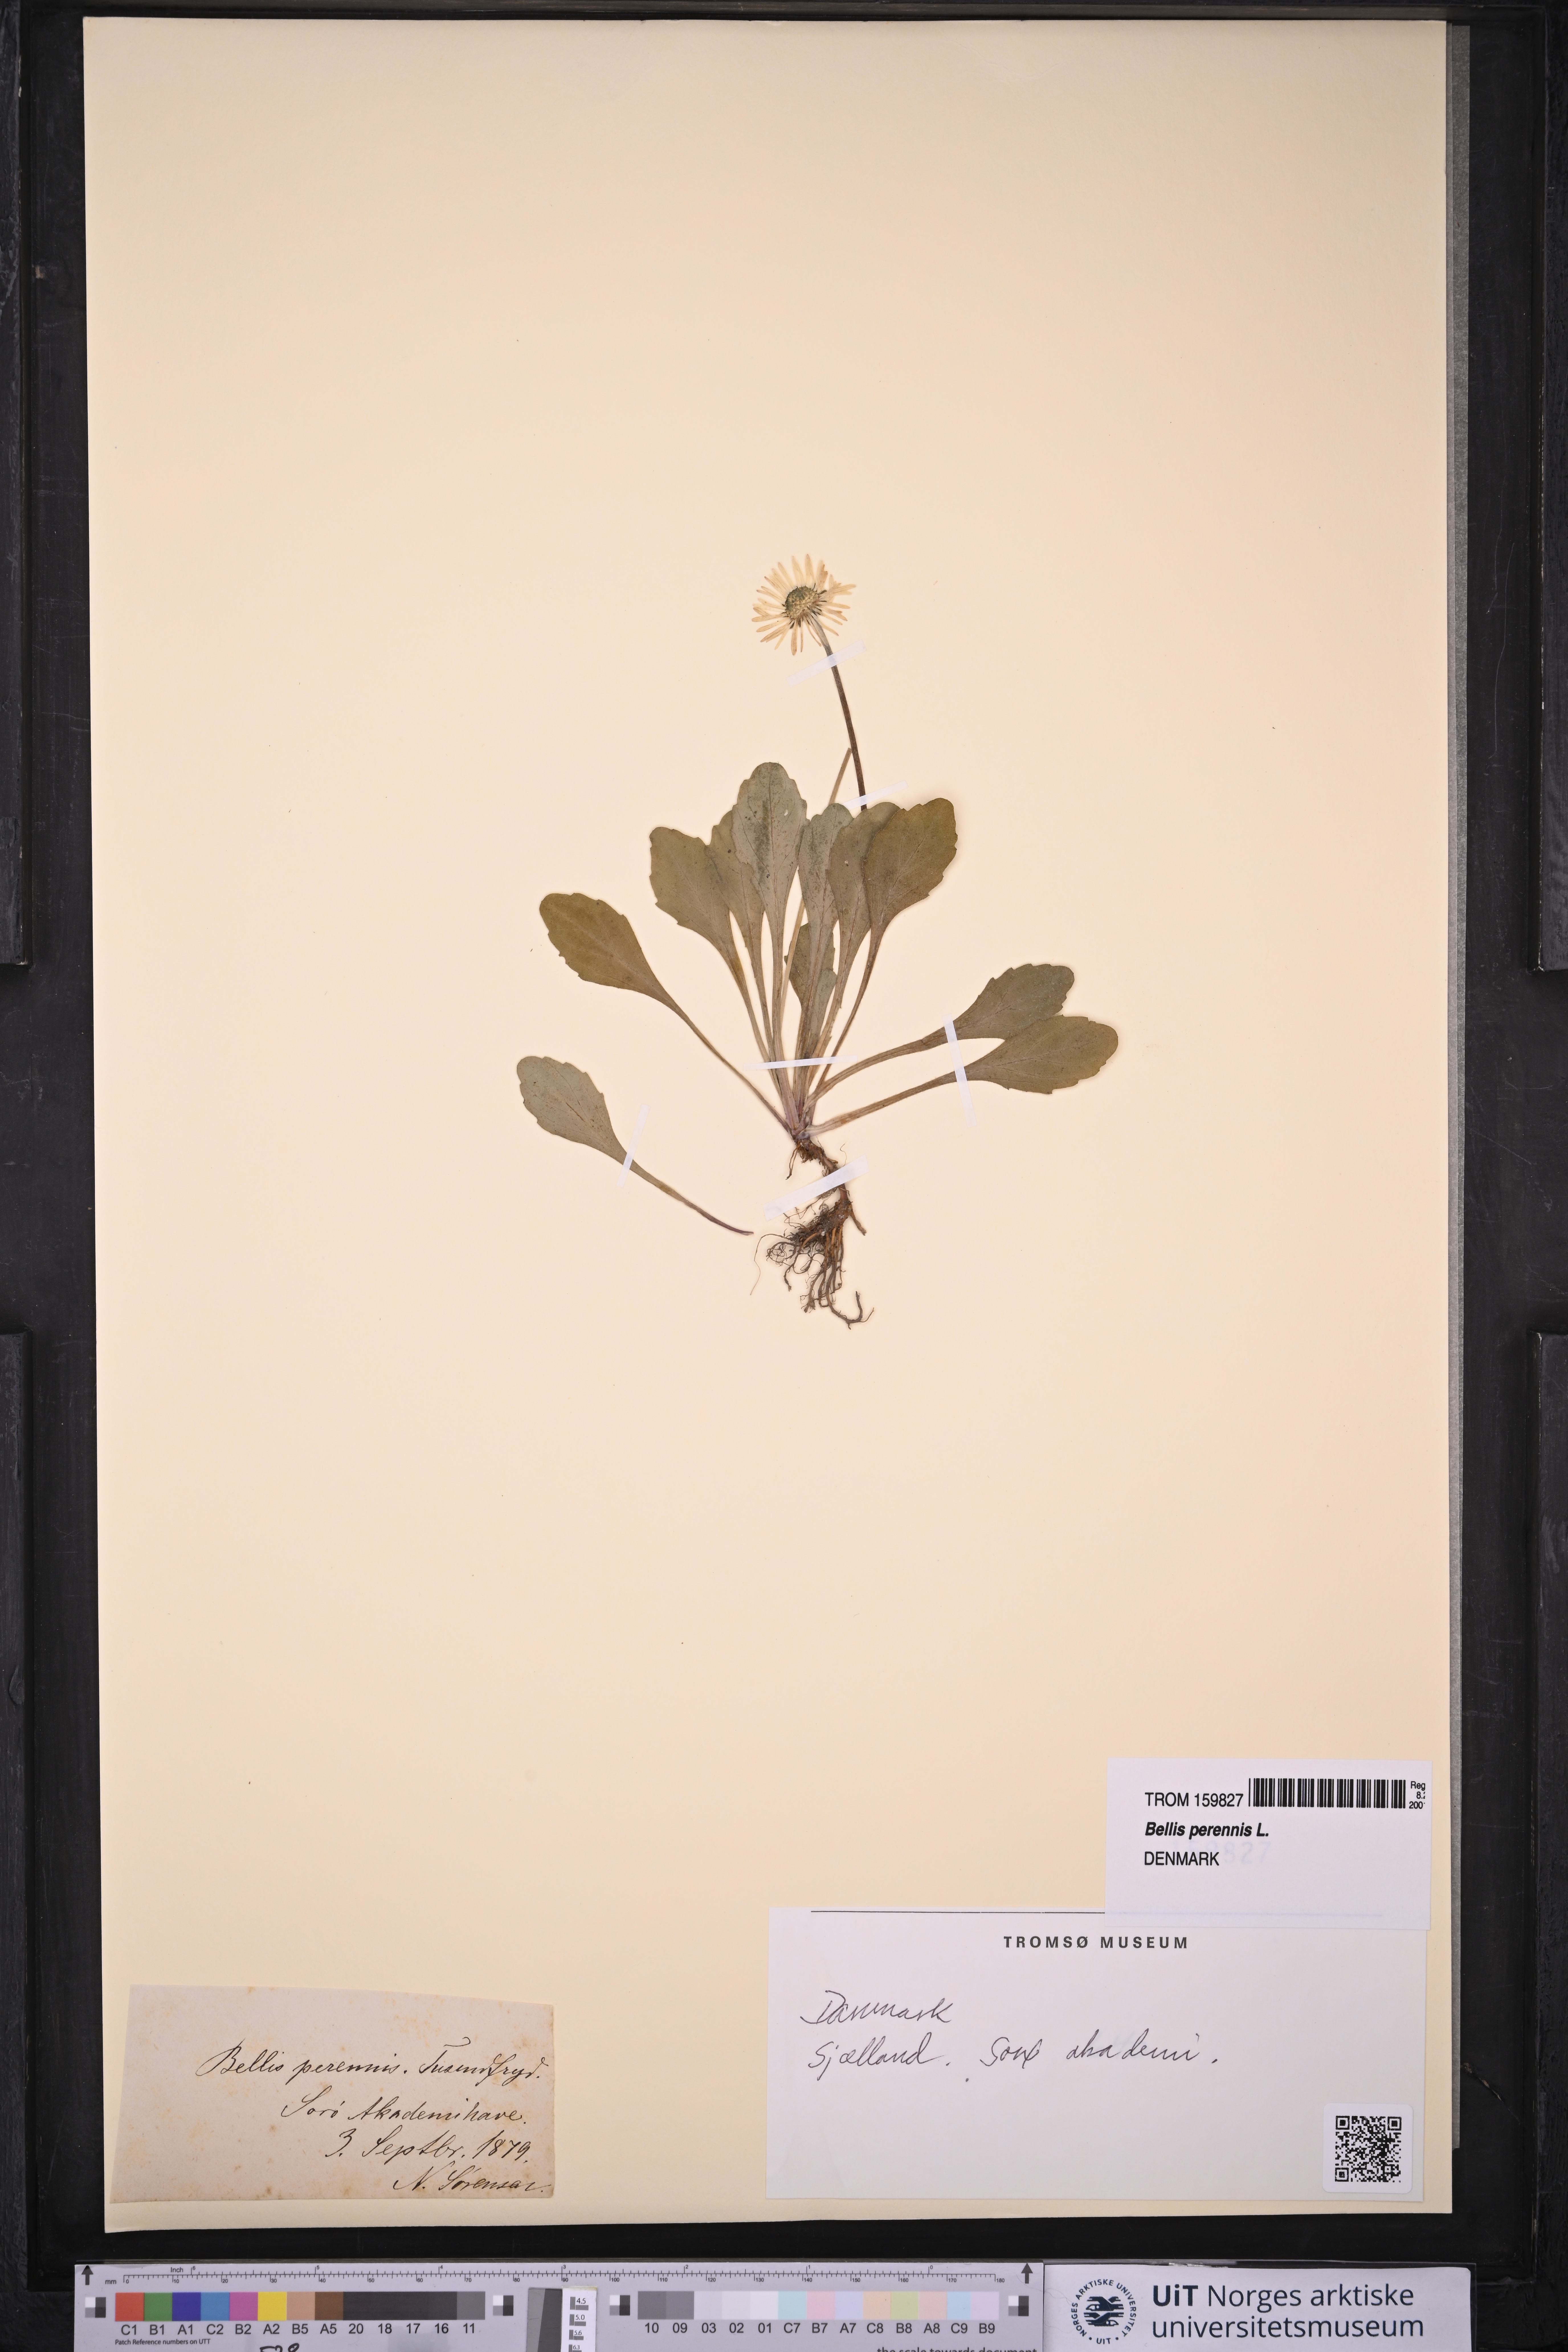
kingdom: Plantae
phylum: Tracheophyta
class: Magnoliopsida
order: Asterales
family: Asteraceae
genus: Bellis
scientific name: Bellis perennis
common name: Lawndaisy
